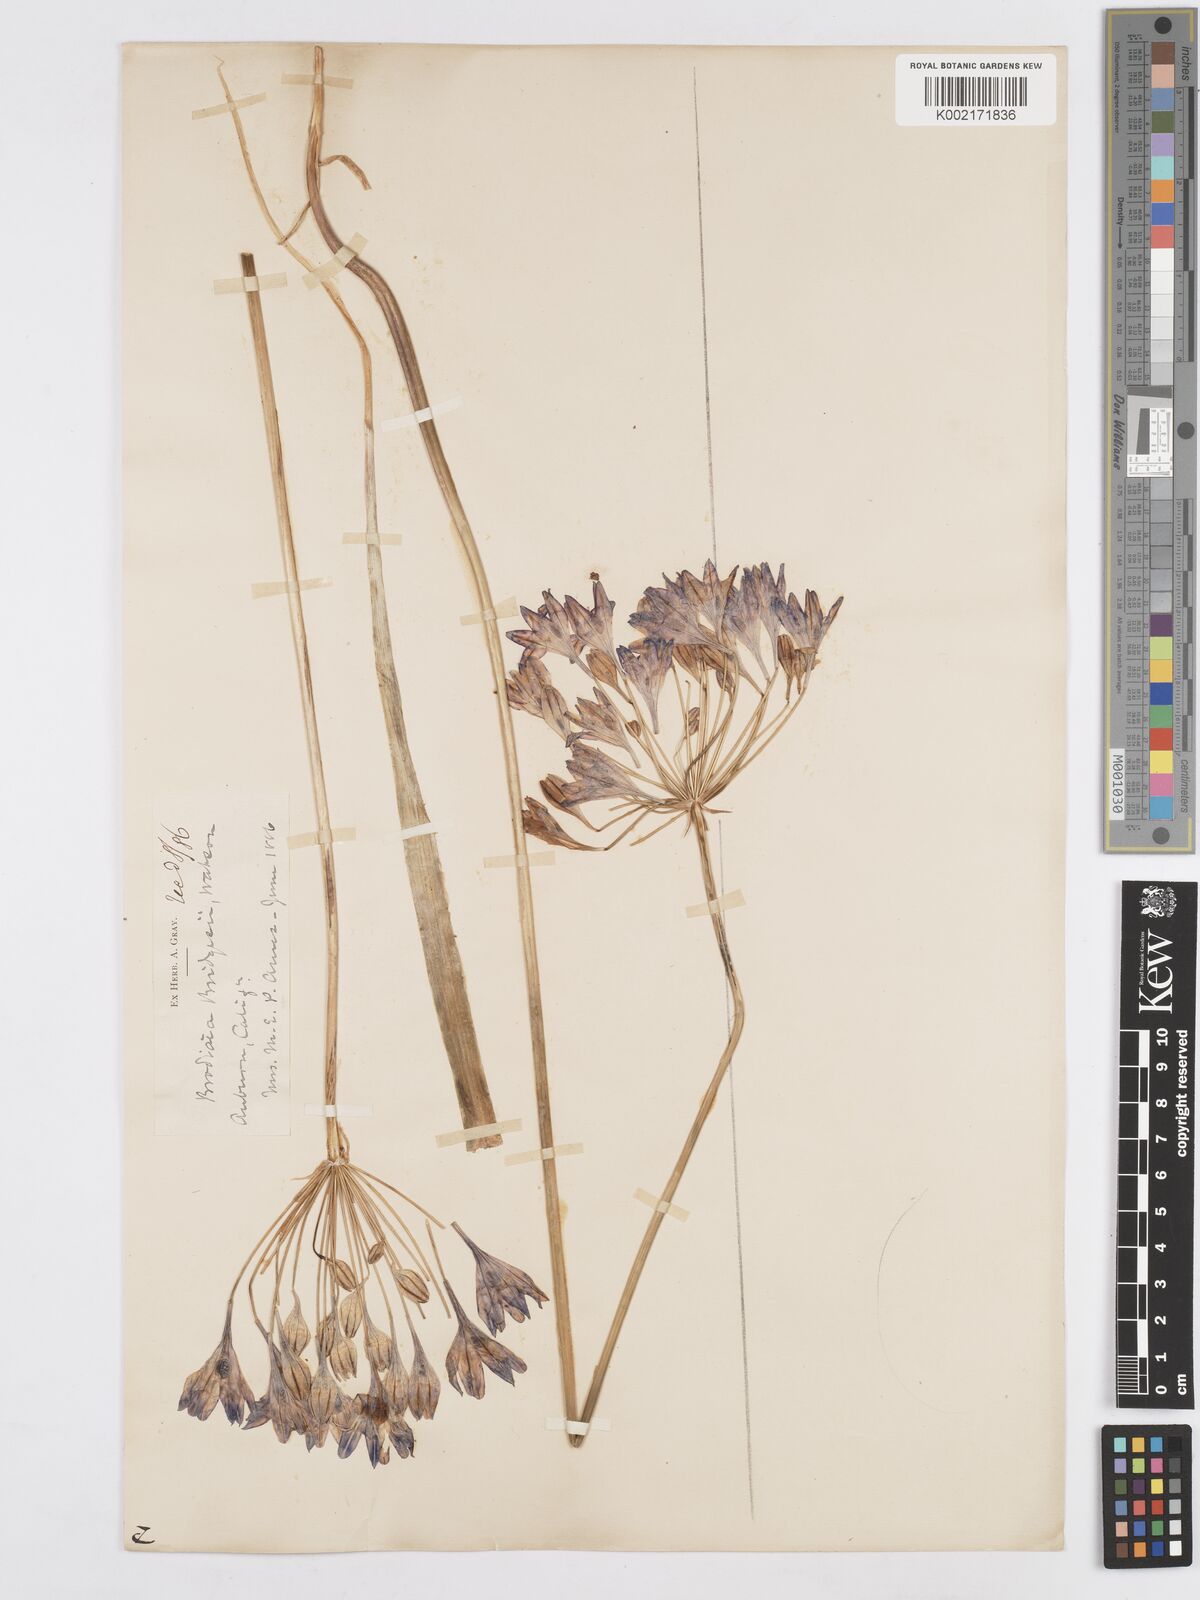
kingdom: Plantae
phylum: Tracheophyta
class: Liliopsida
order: Asparagales
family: Asparagaceae
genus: Triteleia
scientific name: Triteleia bridgesii
